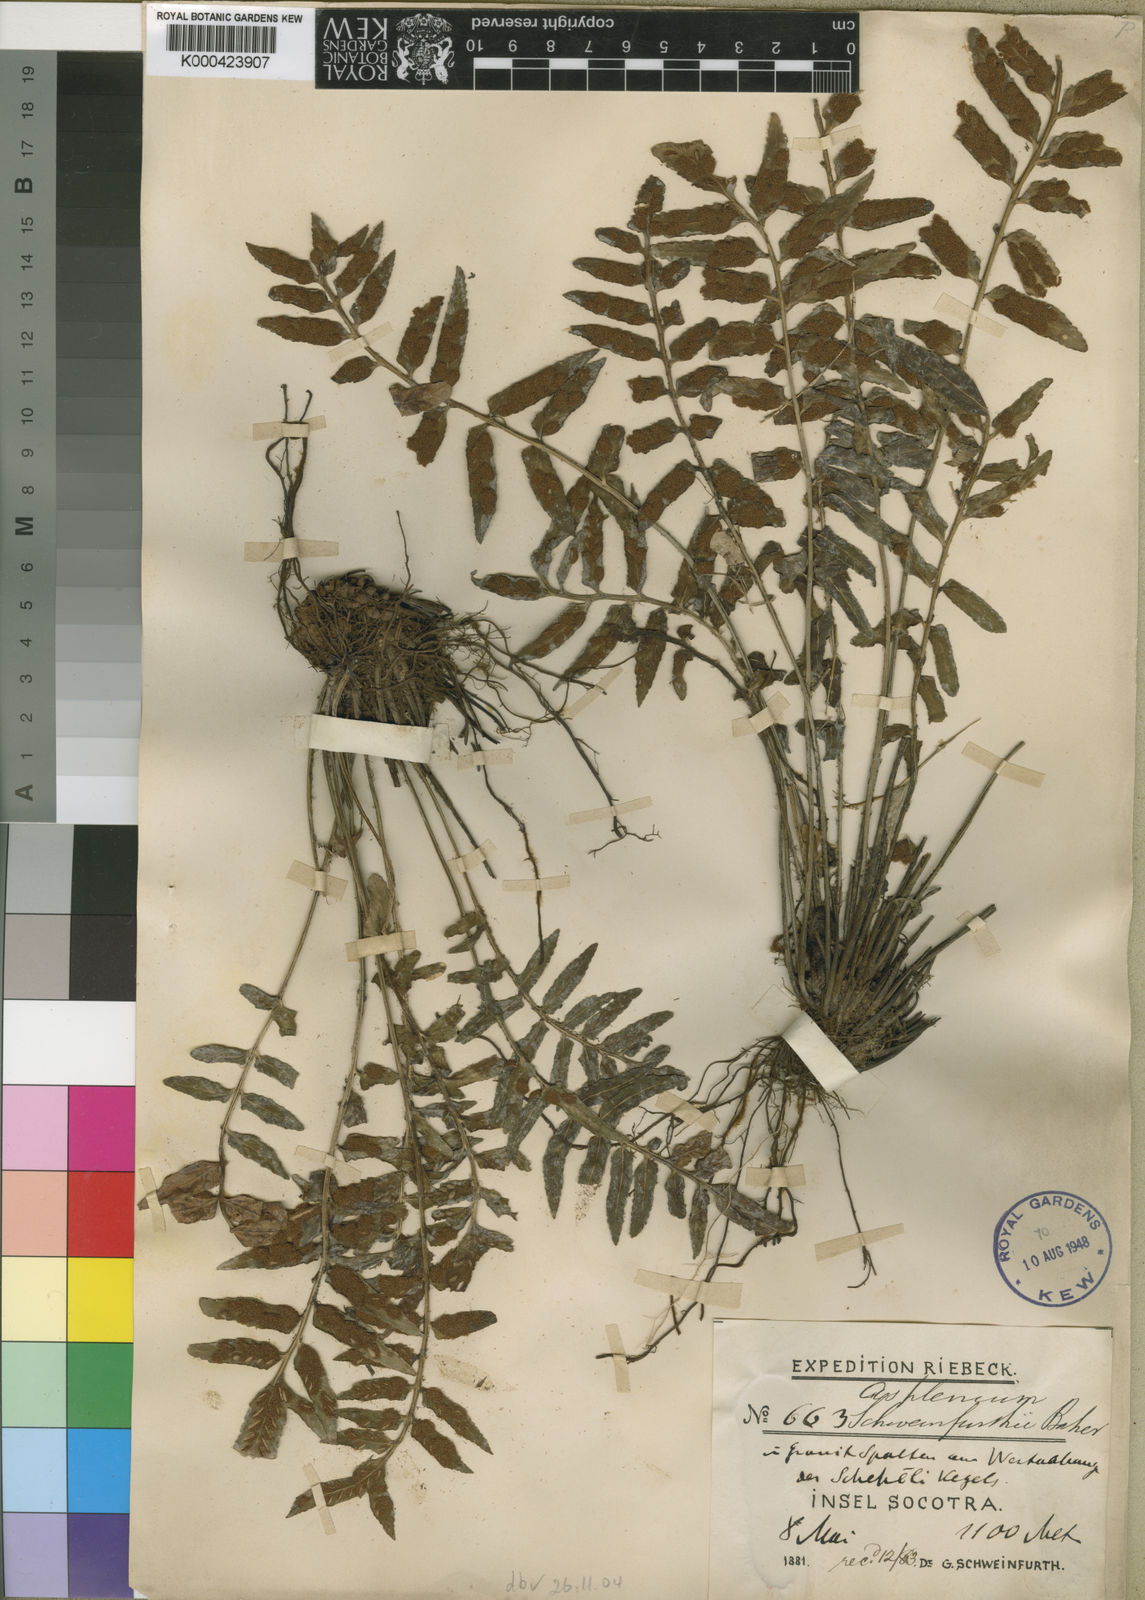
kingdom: Plantae
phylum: Tracheophyta
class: Polypodiopsida
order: Polypodiales
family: Aspleniaceae
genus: Asplenium
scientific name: Asplenium schweinfurthii
